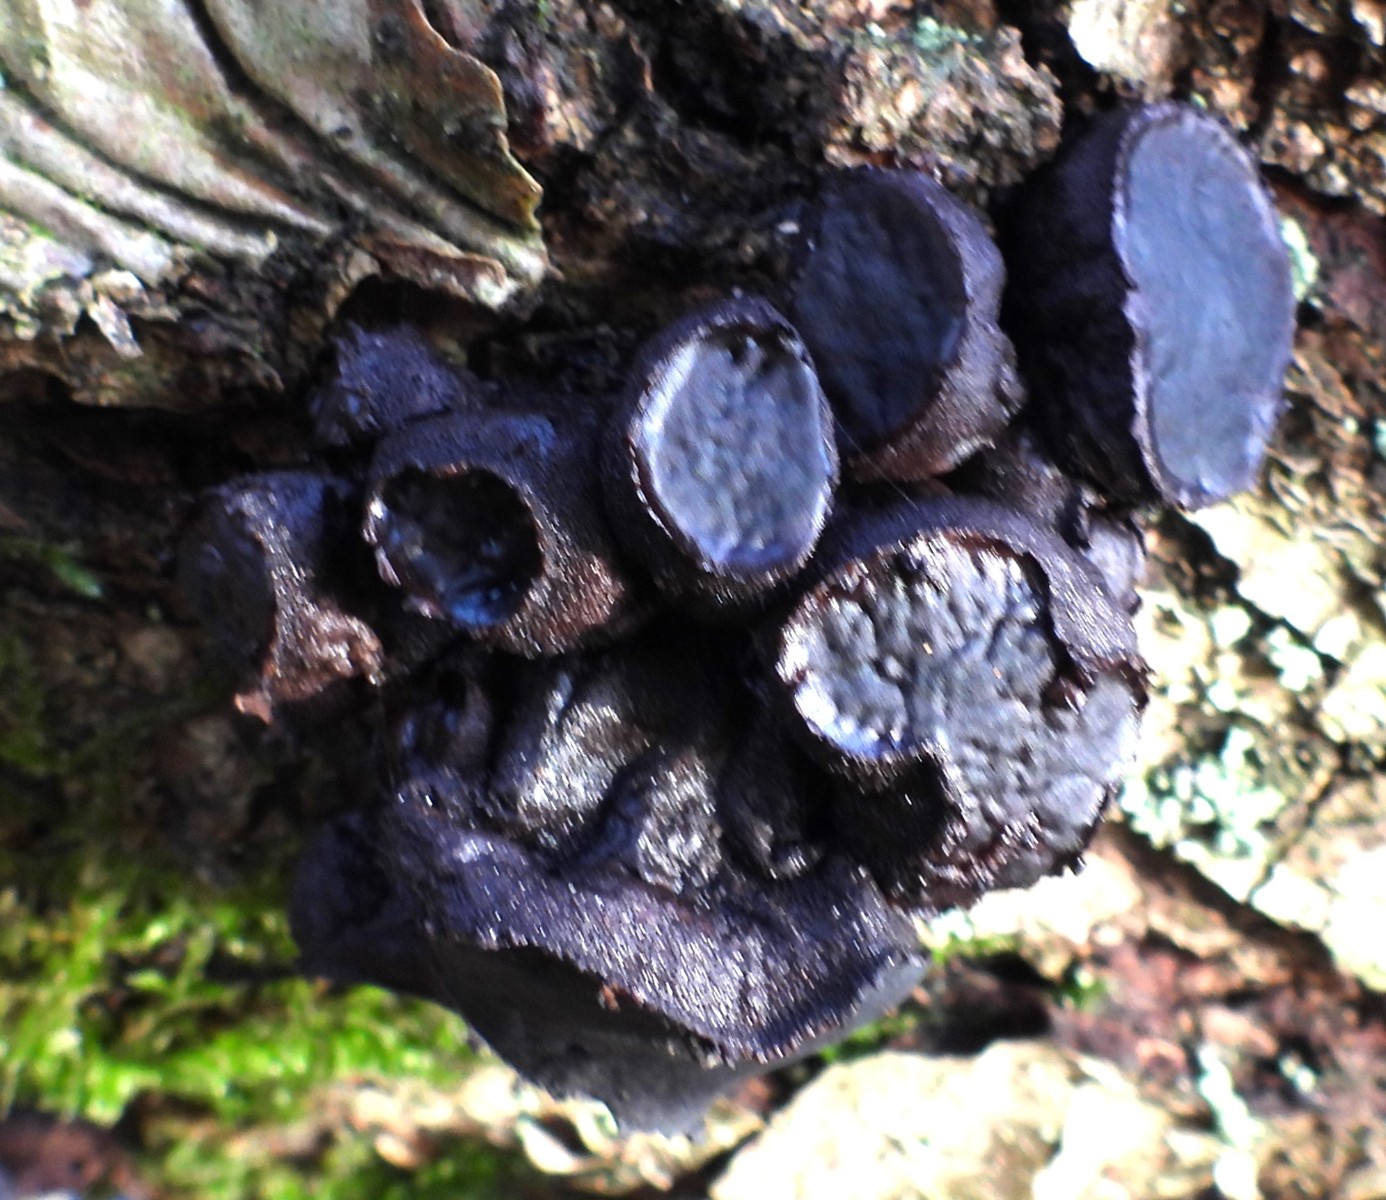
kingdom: Fungi
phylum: Ascomycota
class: Leotiomycetes
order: Phacidiales
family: Phacidiaceae
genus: Bulgaria
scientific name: Bulgaria inquinans
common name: afsmittende topsvamp
